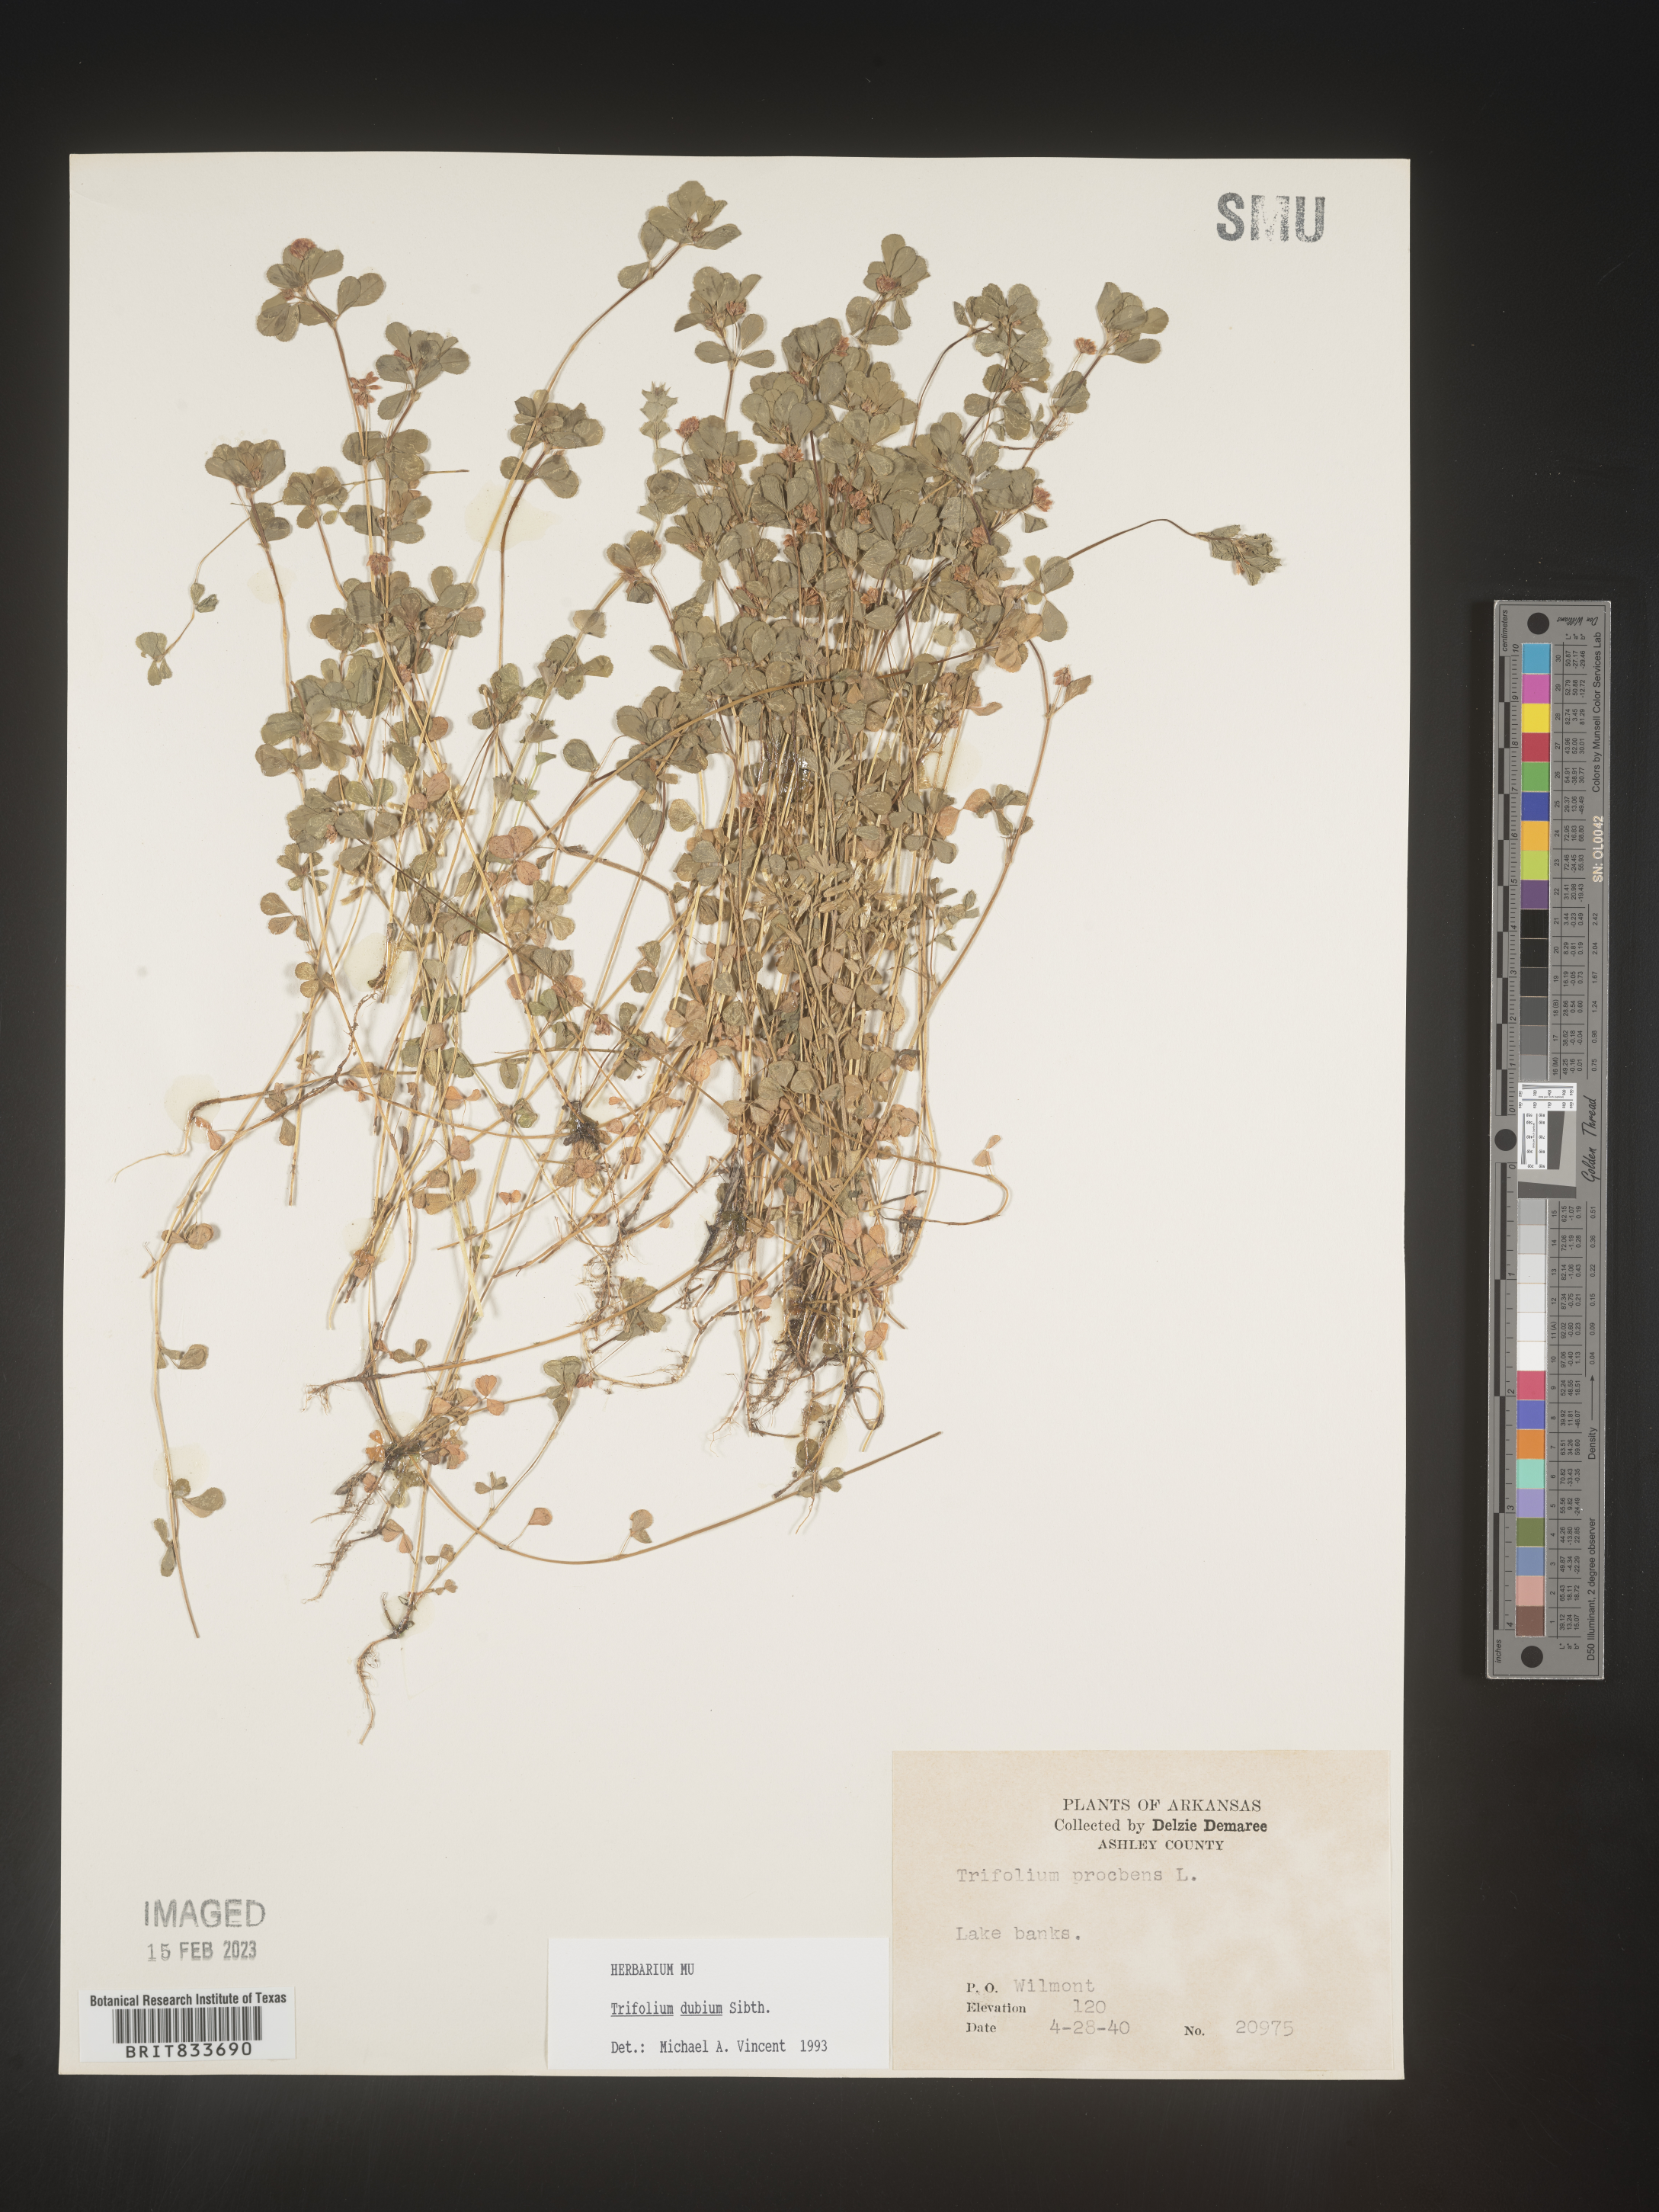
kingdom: Plantae
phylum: Tracheophyta
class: Magnoliopsida
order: Fabales
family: Fabaceae
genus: Trifolium
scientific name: Trifolium dubium
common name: Suckling clover
